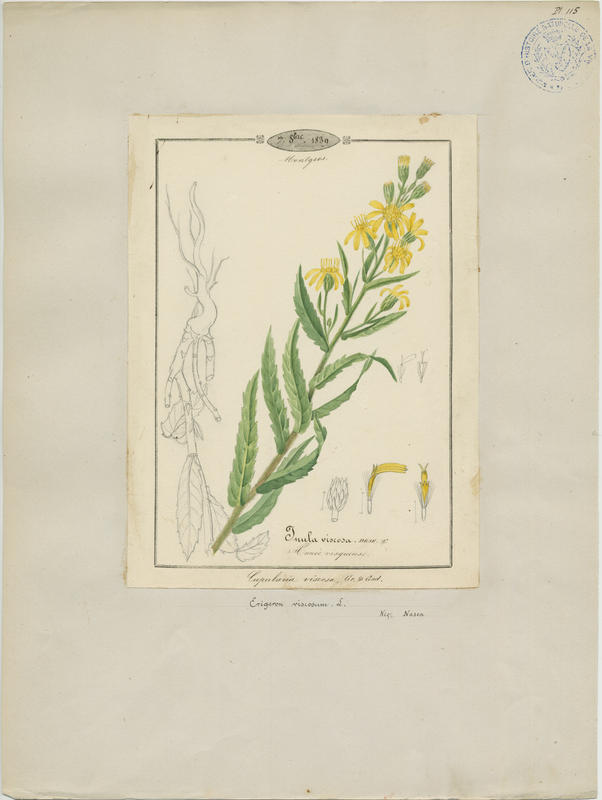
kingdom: Plantae
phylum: Tracheophyta
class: Magnoliopsida
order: Asterales
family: Asteraceae
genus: Dittrichia
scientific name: Dittrichia viscosa
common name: Woody fleabane
